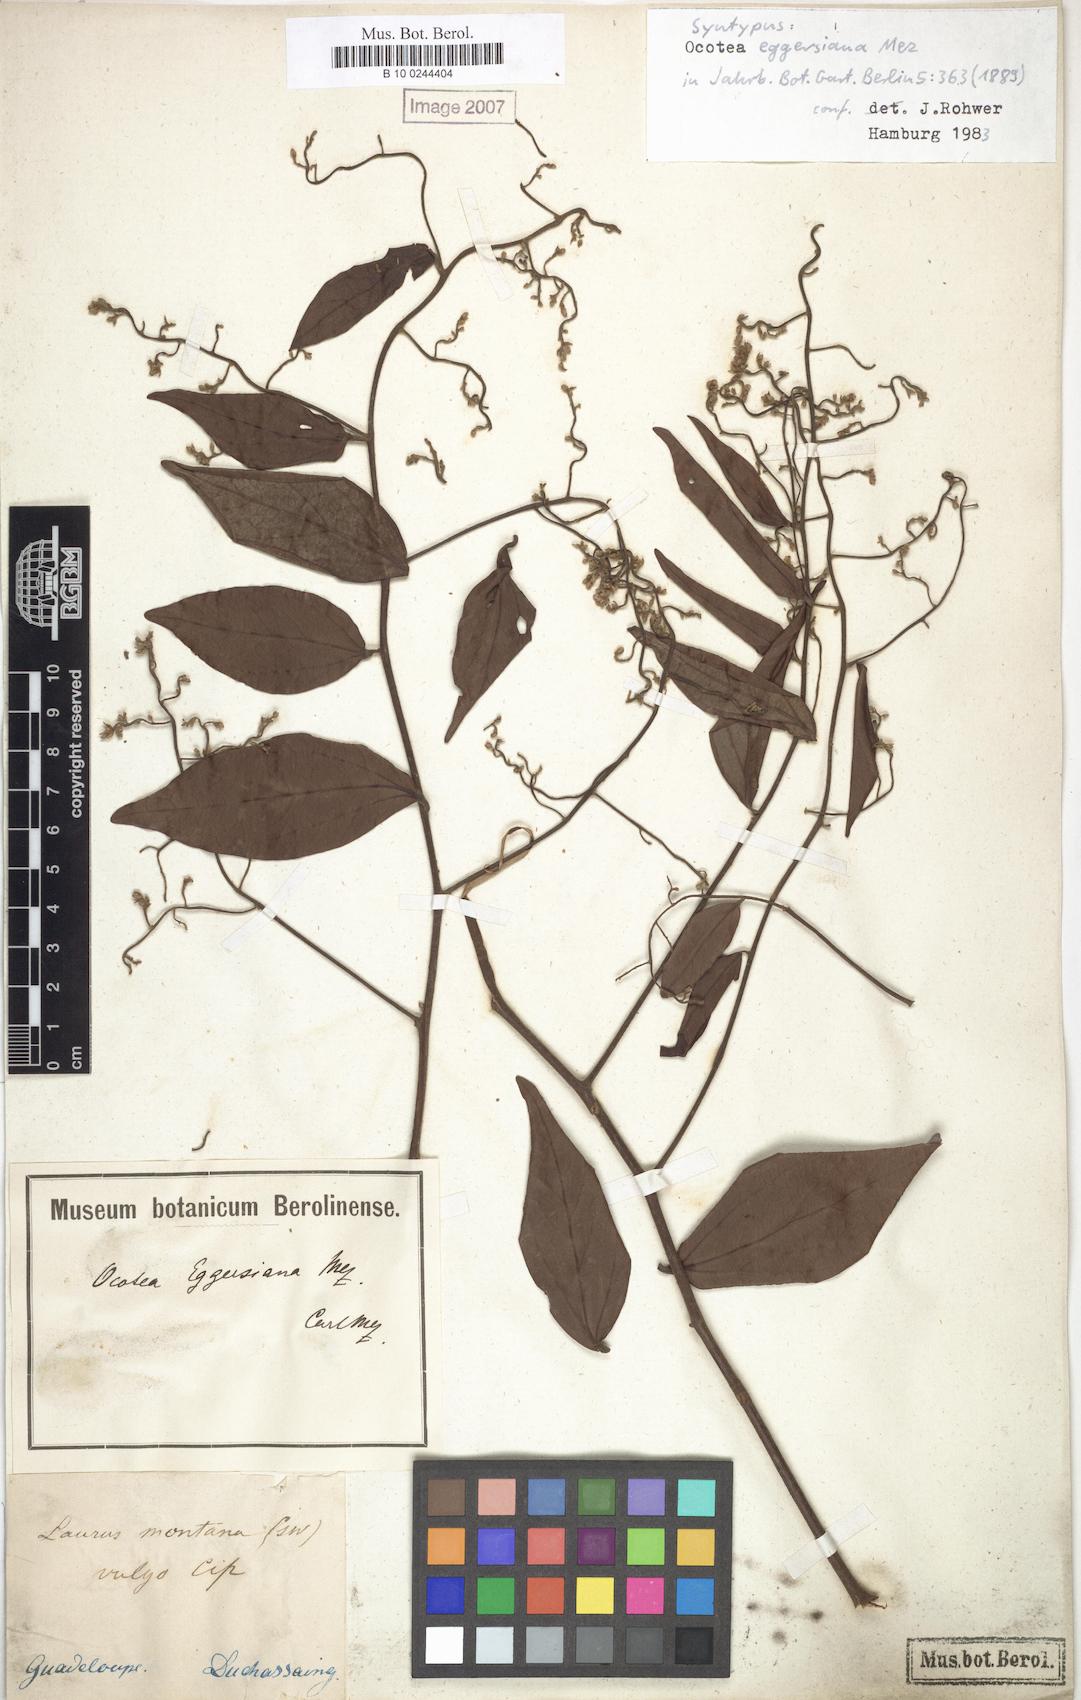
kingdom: Plantae
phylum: Tracheophyta
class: Magnoliopsida
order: Laurales
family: Lauraceae
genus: Ocotea
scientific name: Ocotea eggersiana
